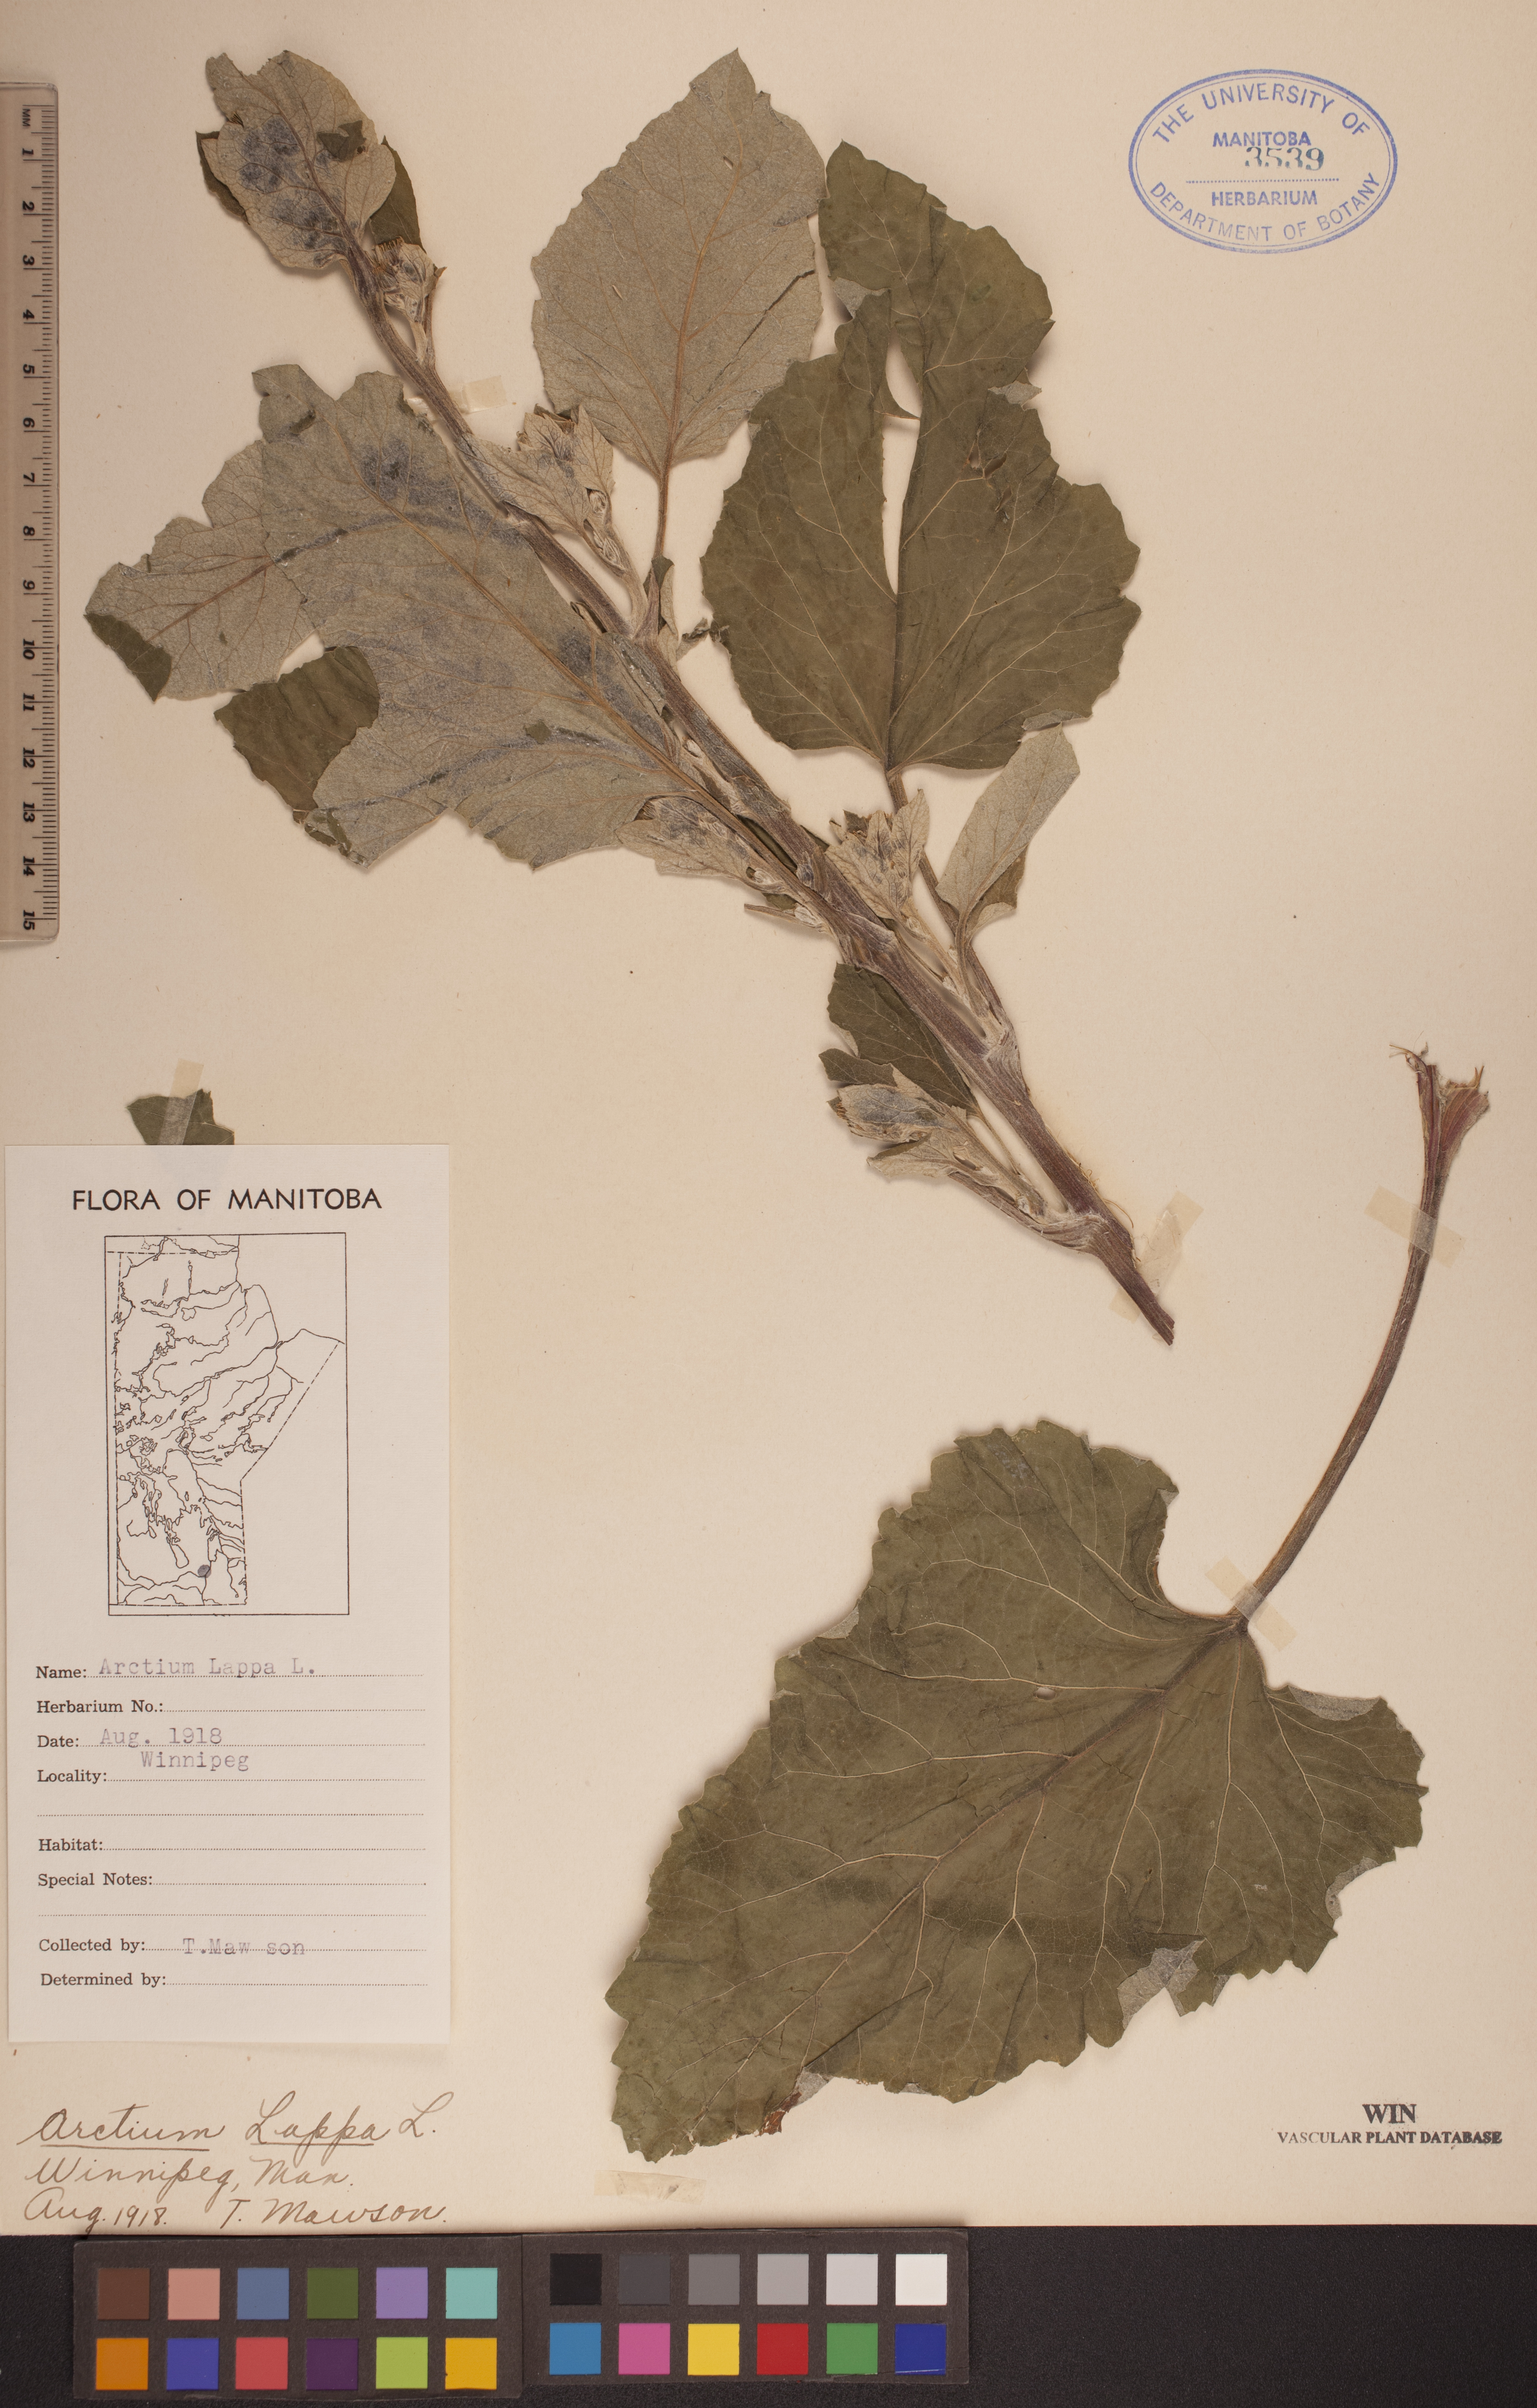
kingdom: Plantae
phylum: Tracheophyta
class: Magnoliopsida
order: Asterales
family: Asteraceae
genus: Arctium
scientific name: Arctium lappa
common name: Greater burdock
